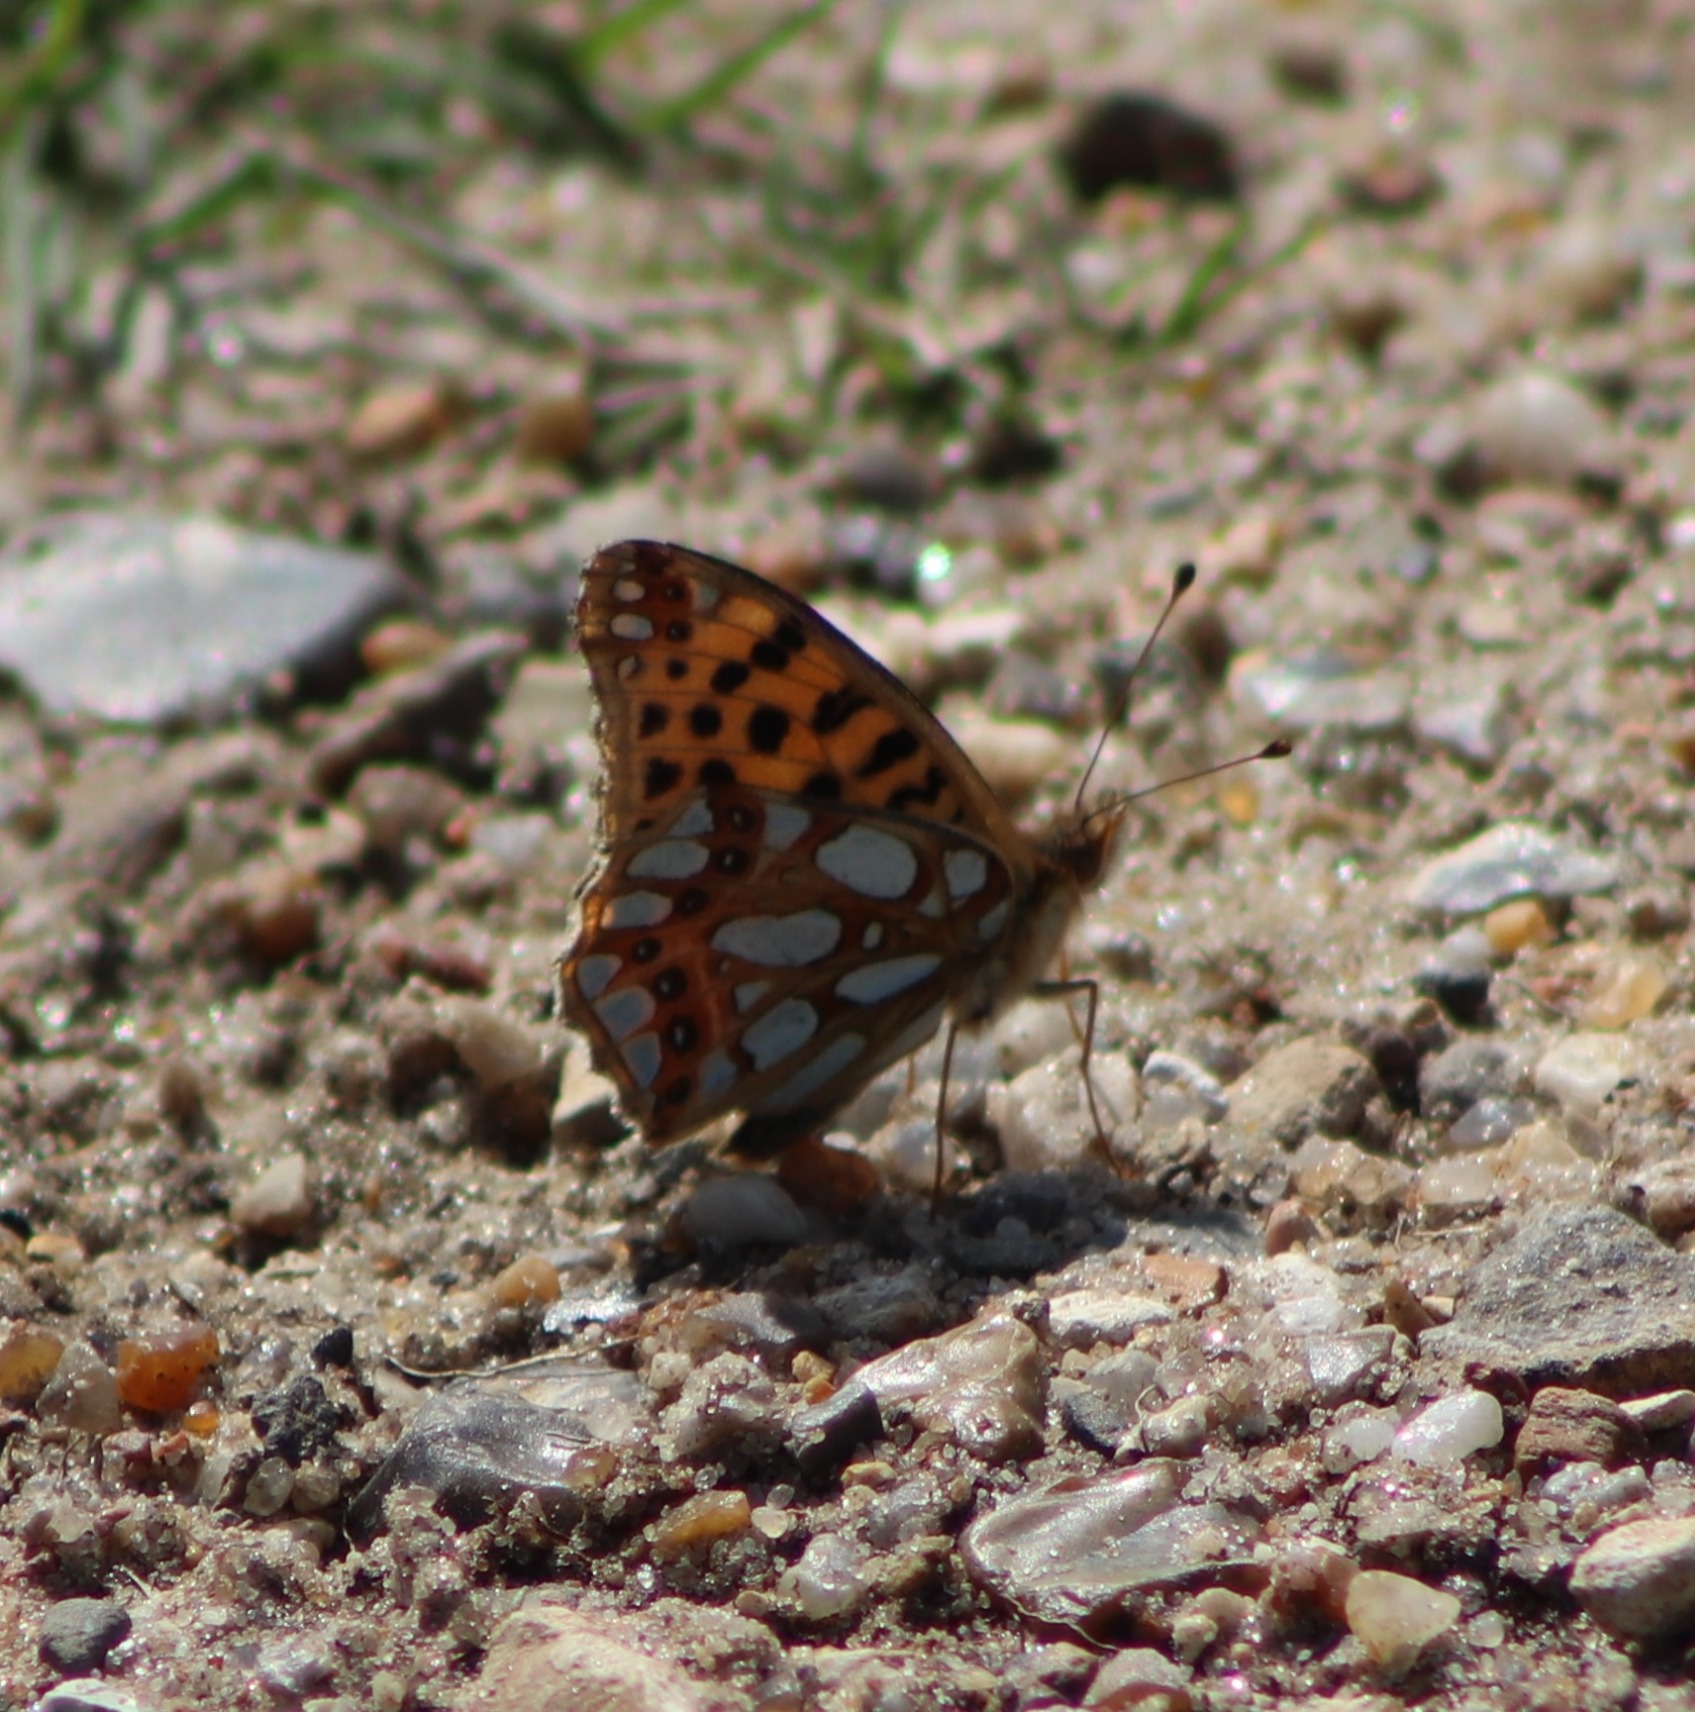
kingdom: Animalia
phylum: Arthropoda
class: Insecta
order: Lepidoptera
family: Nymphalidae
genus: Issoria
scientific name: Issoria lathonia
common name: Storplettet perlemorsommerfugl
